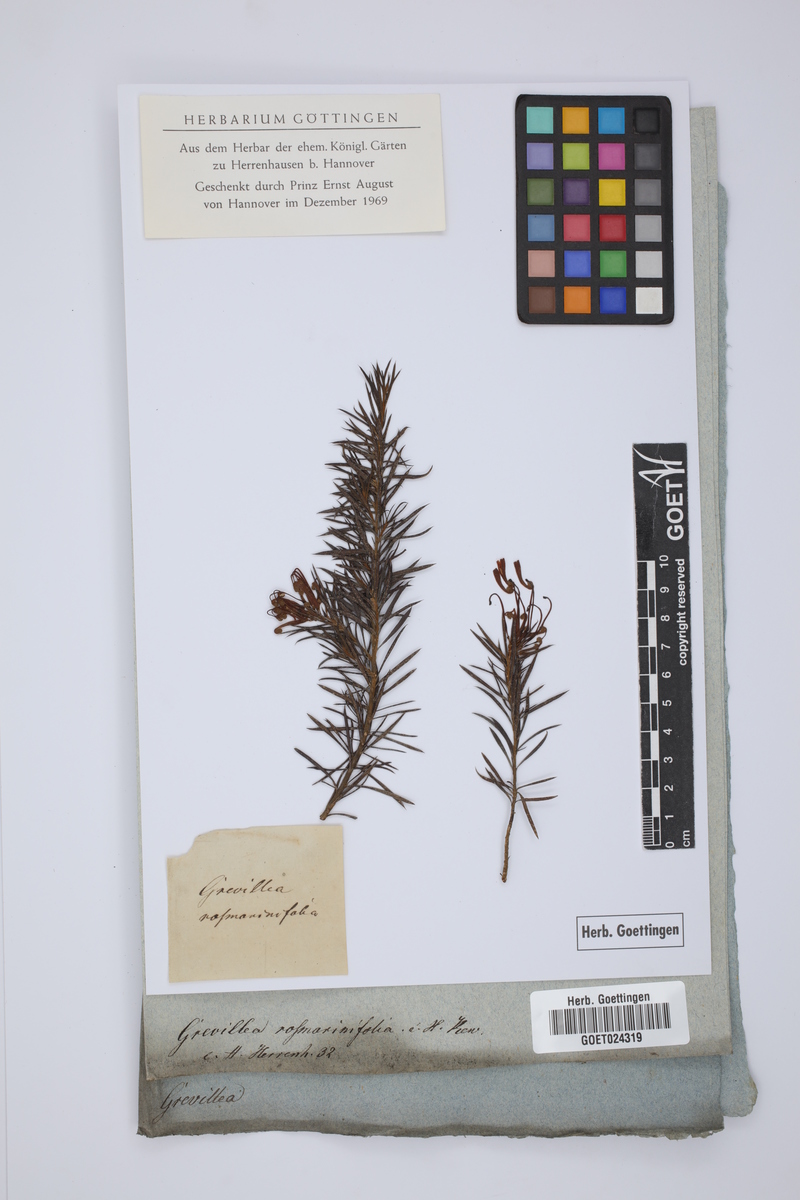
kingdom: Plantae
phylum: Tracheophyta
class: Magnoliopsida
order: Proteales
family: Proteaceae
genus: Grevillea
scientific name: Grevillea rosmarinifolia
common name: Rosemary grevillea
